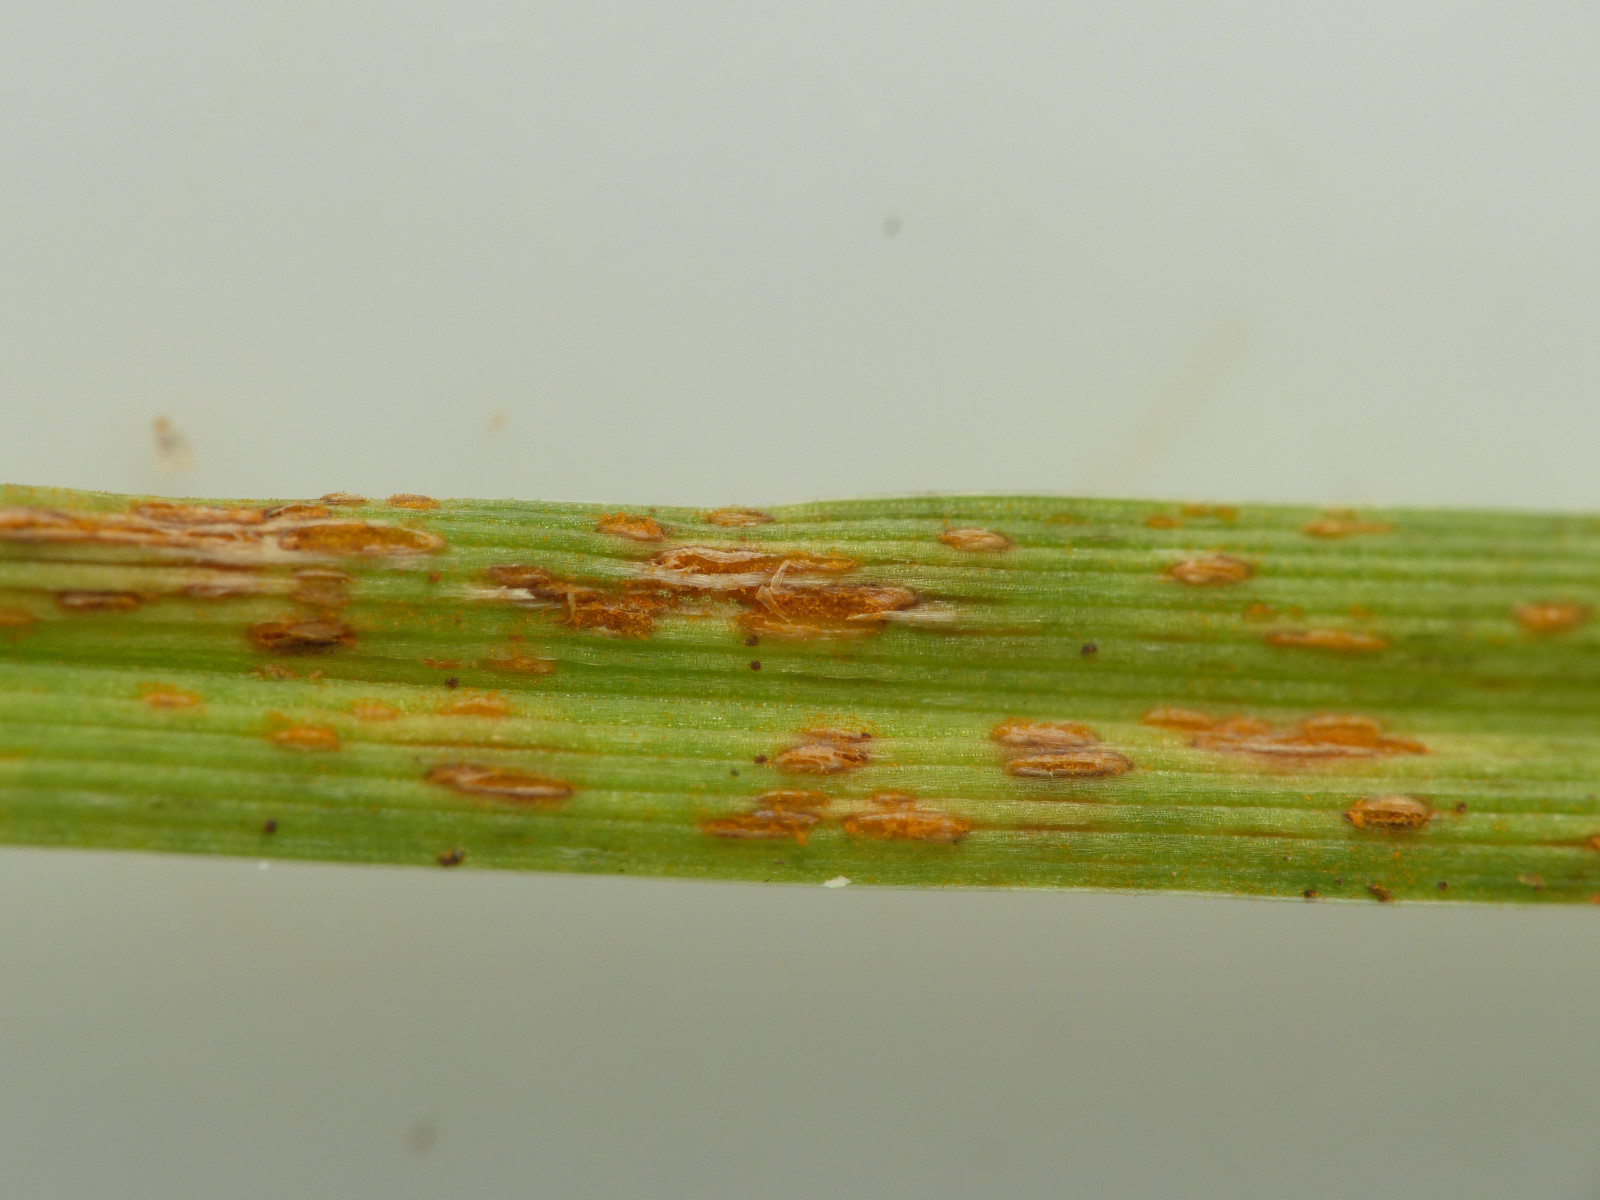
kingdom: Fungi
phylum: Basidiomycota
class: Pucciniomycetes
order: Pucciniales
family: Pucciniaceae
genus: Puccinia
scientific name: Puccinia
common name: tvecellerust
